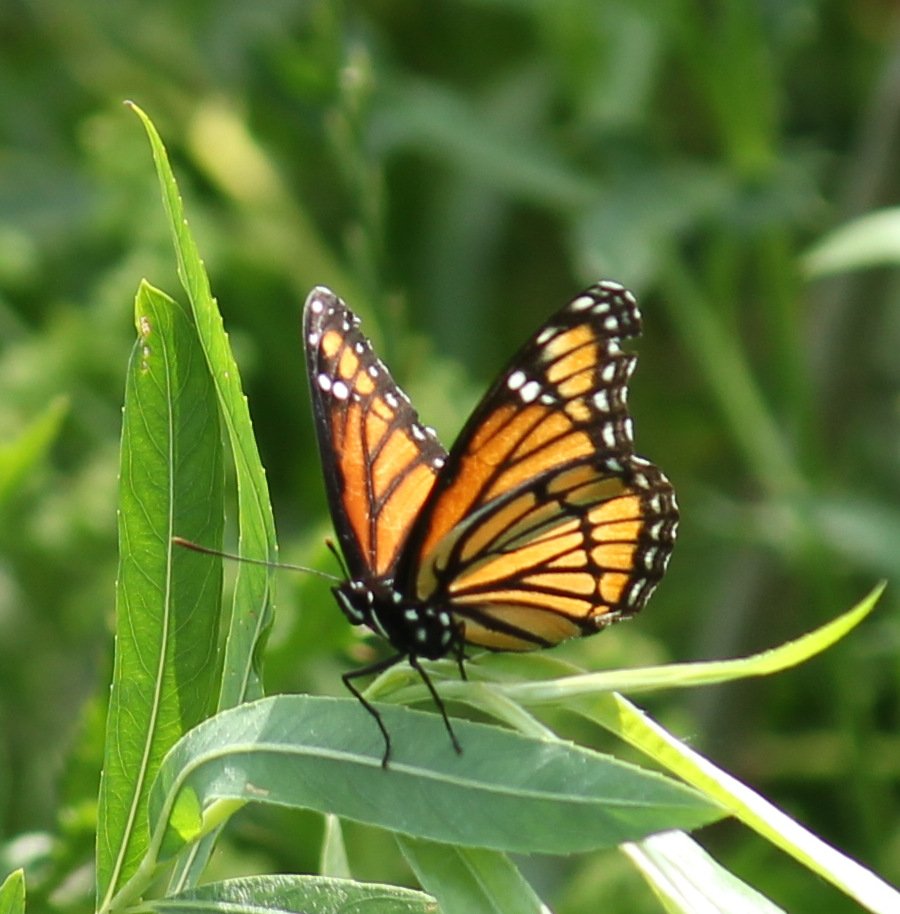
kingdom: Animalia
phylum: Arthropoda
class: Insecta
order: Lepidoptera
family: Nymphalidae
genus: Limenitis
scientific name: Limenitis archippus
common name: Viceroy
